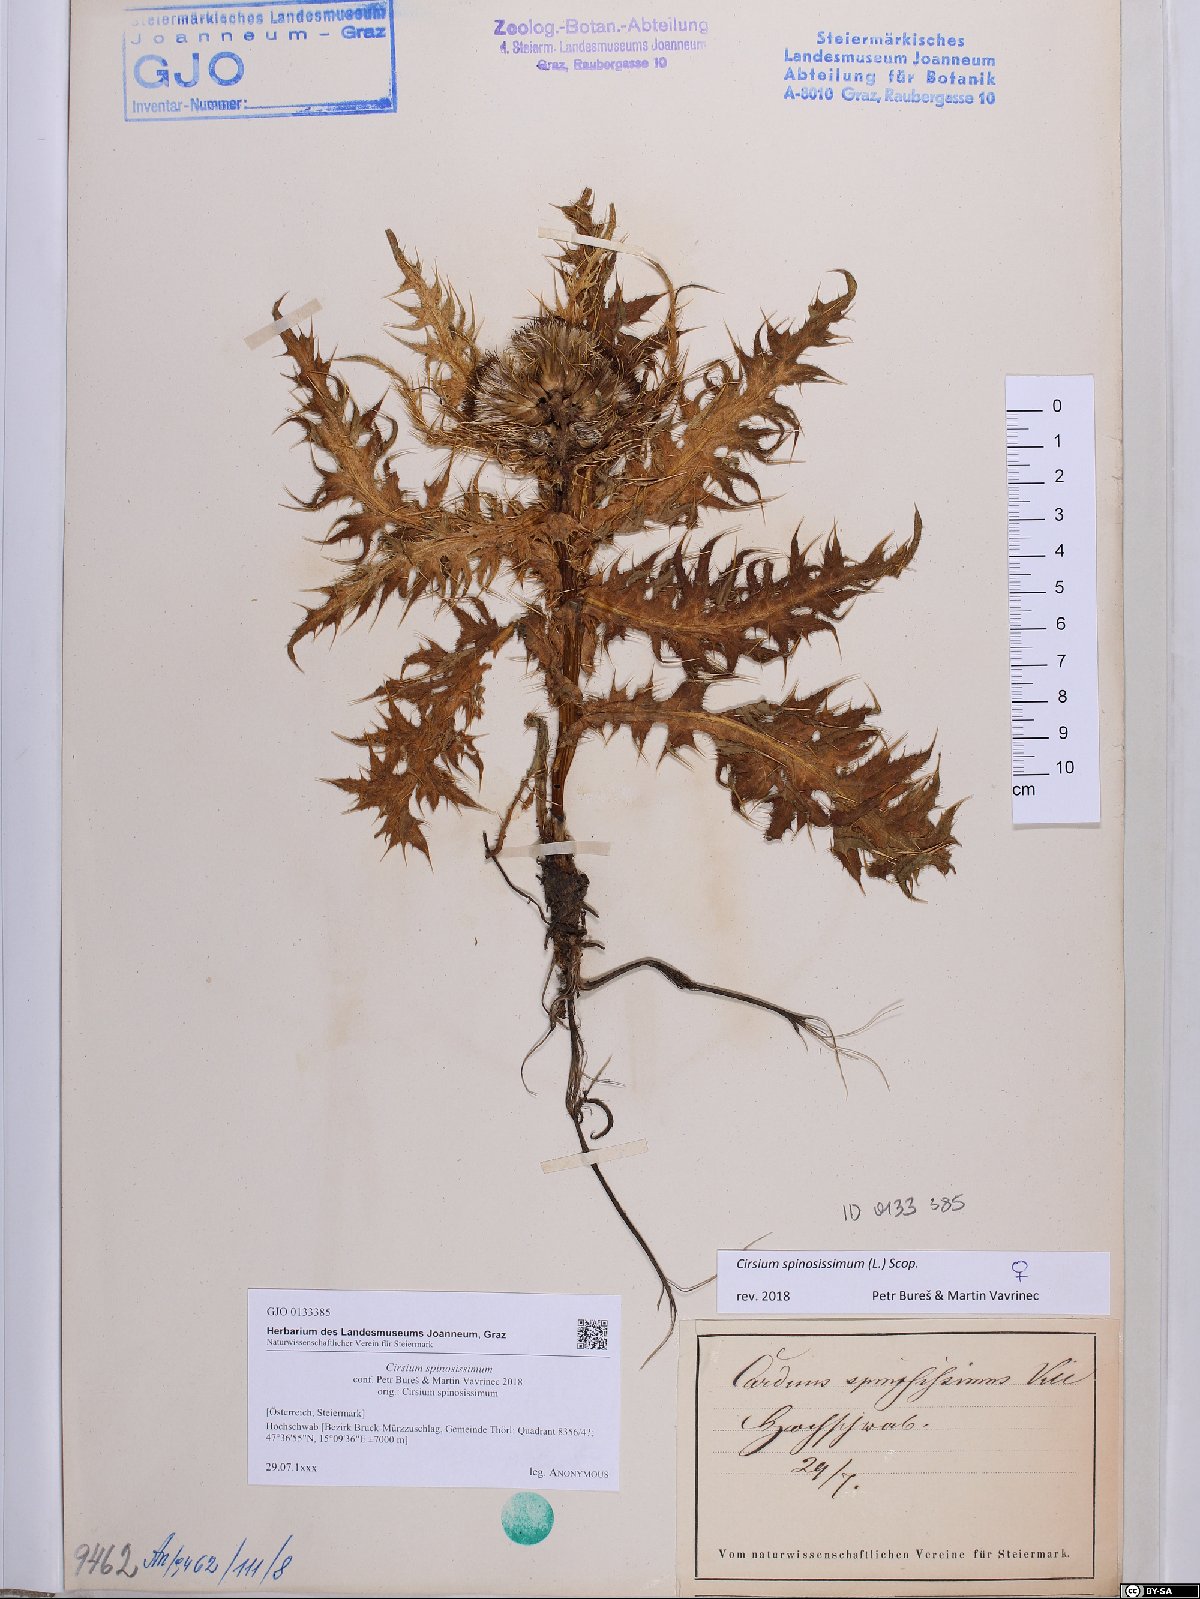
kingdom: Plantae
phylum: Tracheophyta
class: Magnoliopsida
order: Asterales
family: Asteraceae
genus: Cirsium
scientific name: Cirsium spinosissimum
